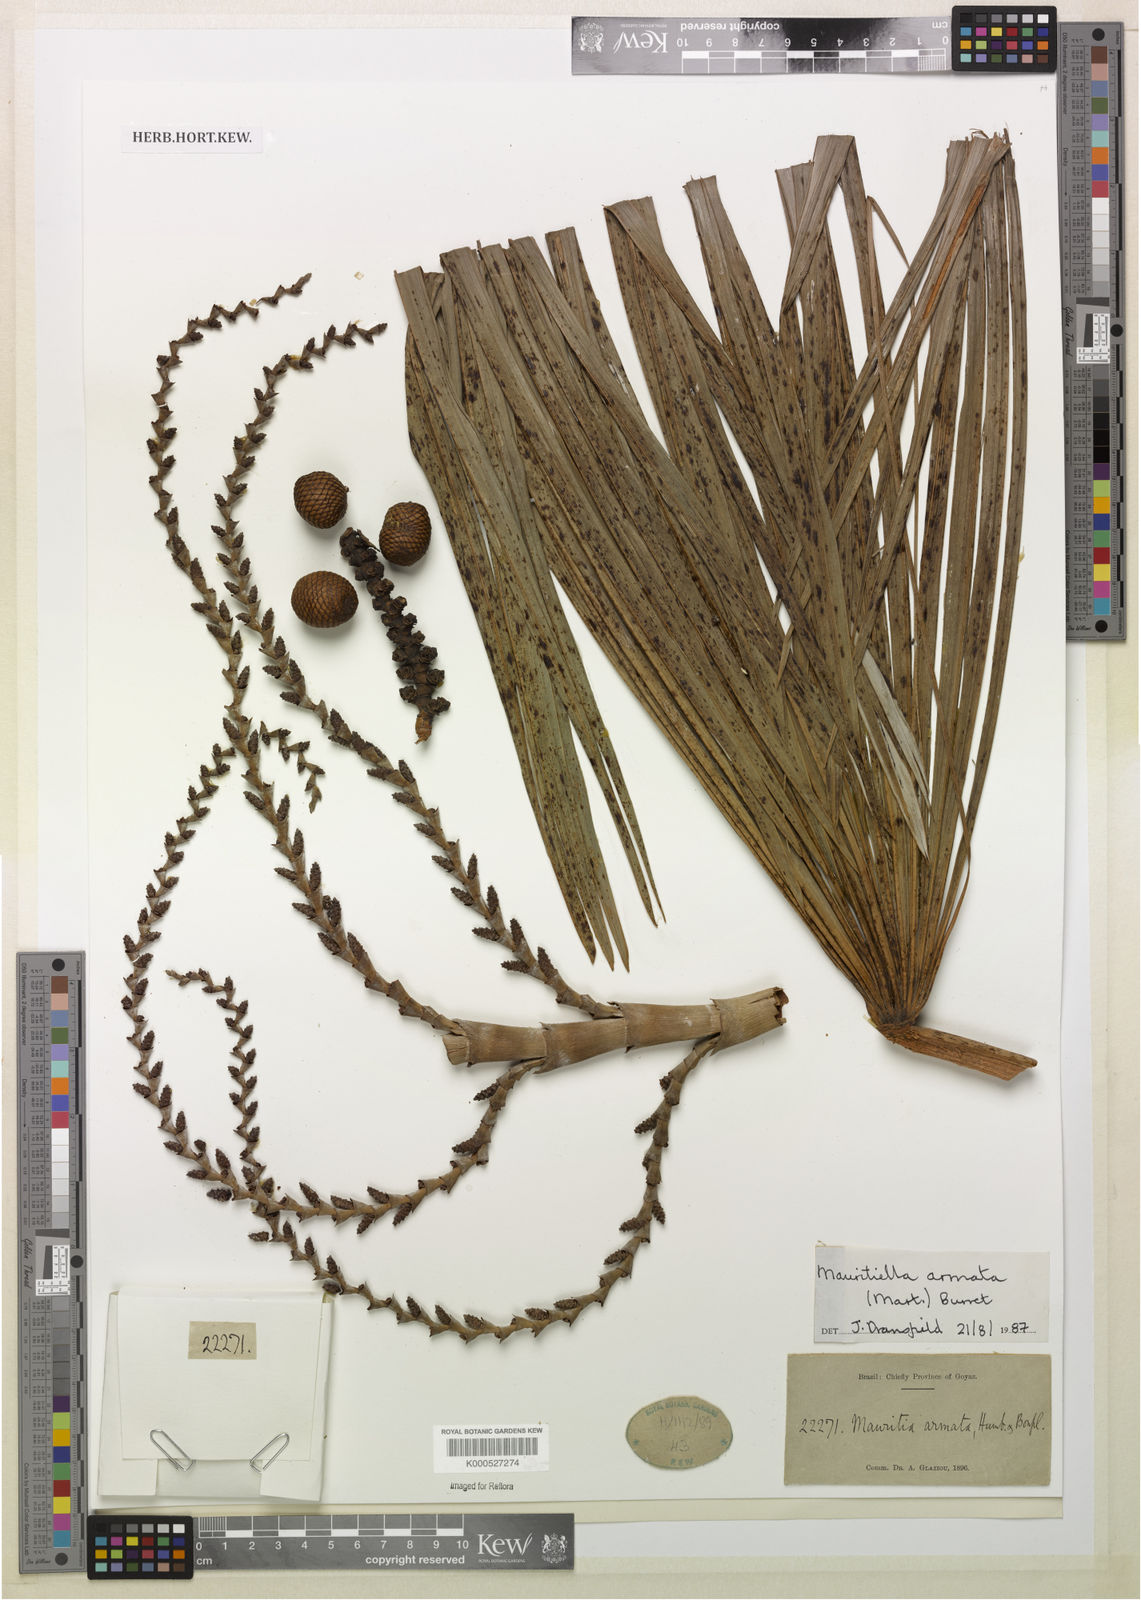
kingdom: Plantae
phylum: Tracheophyta
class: Liliopsida
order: Arecales
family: Arecaceae
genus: Mauritiella
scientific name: Mauritiella armata
